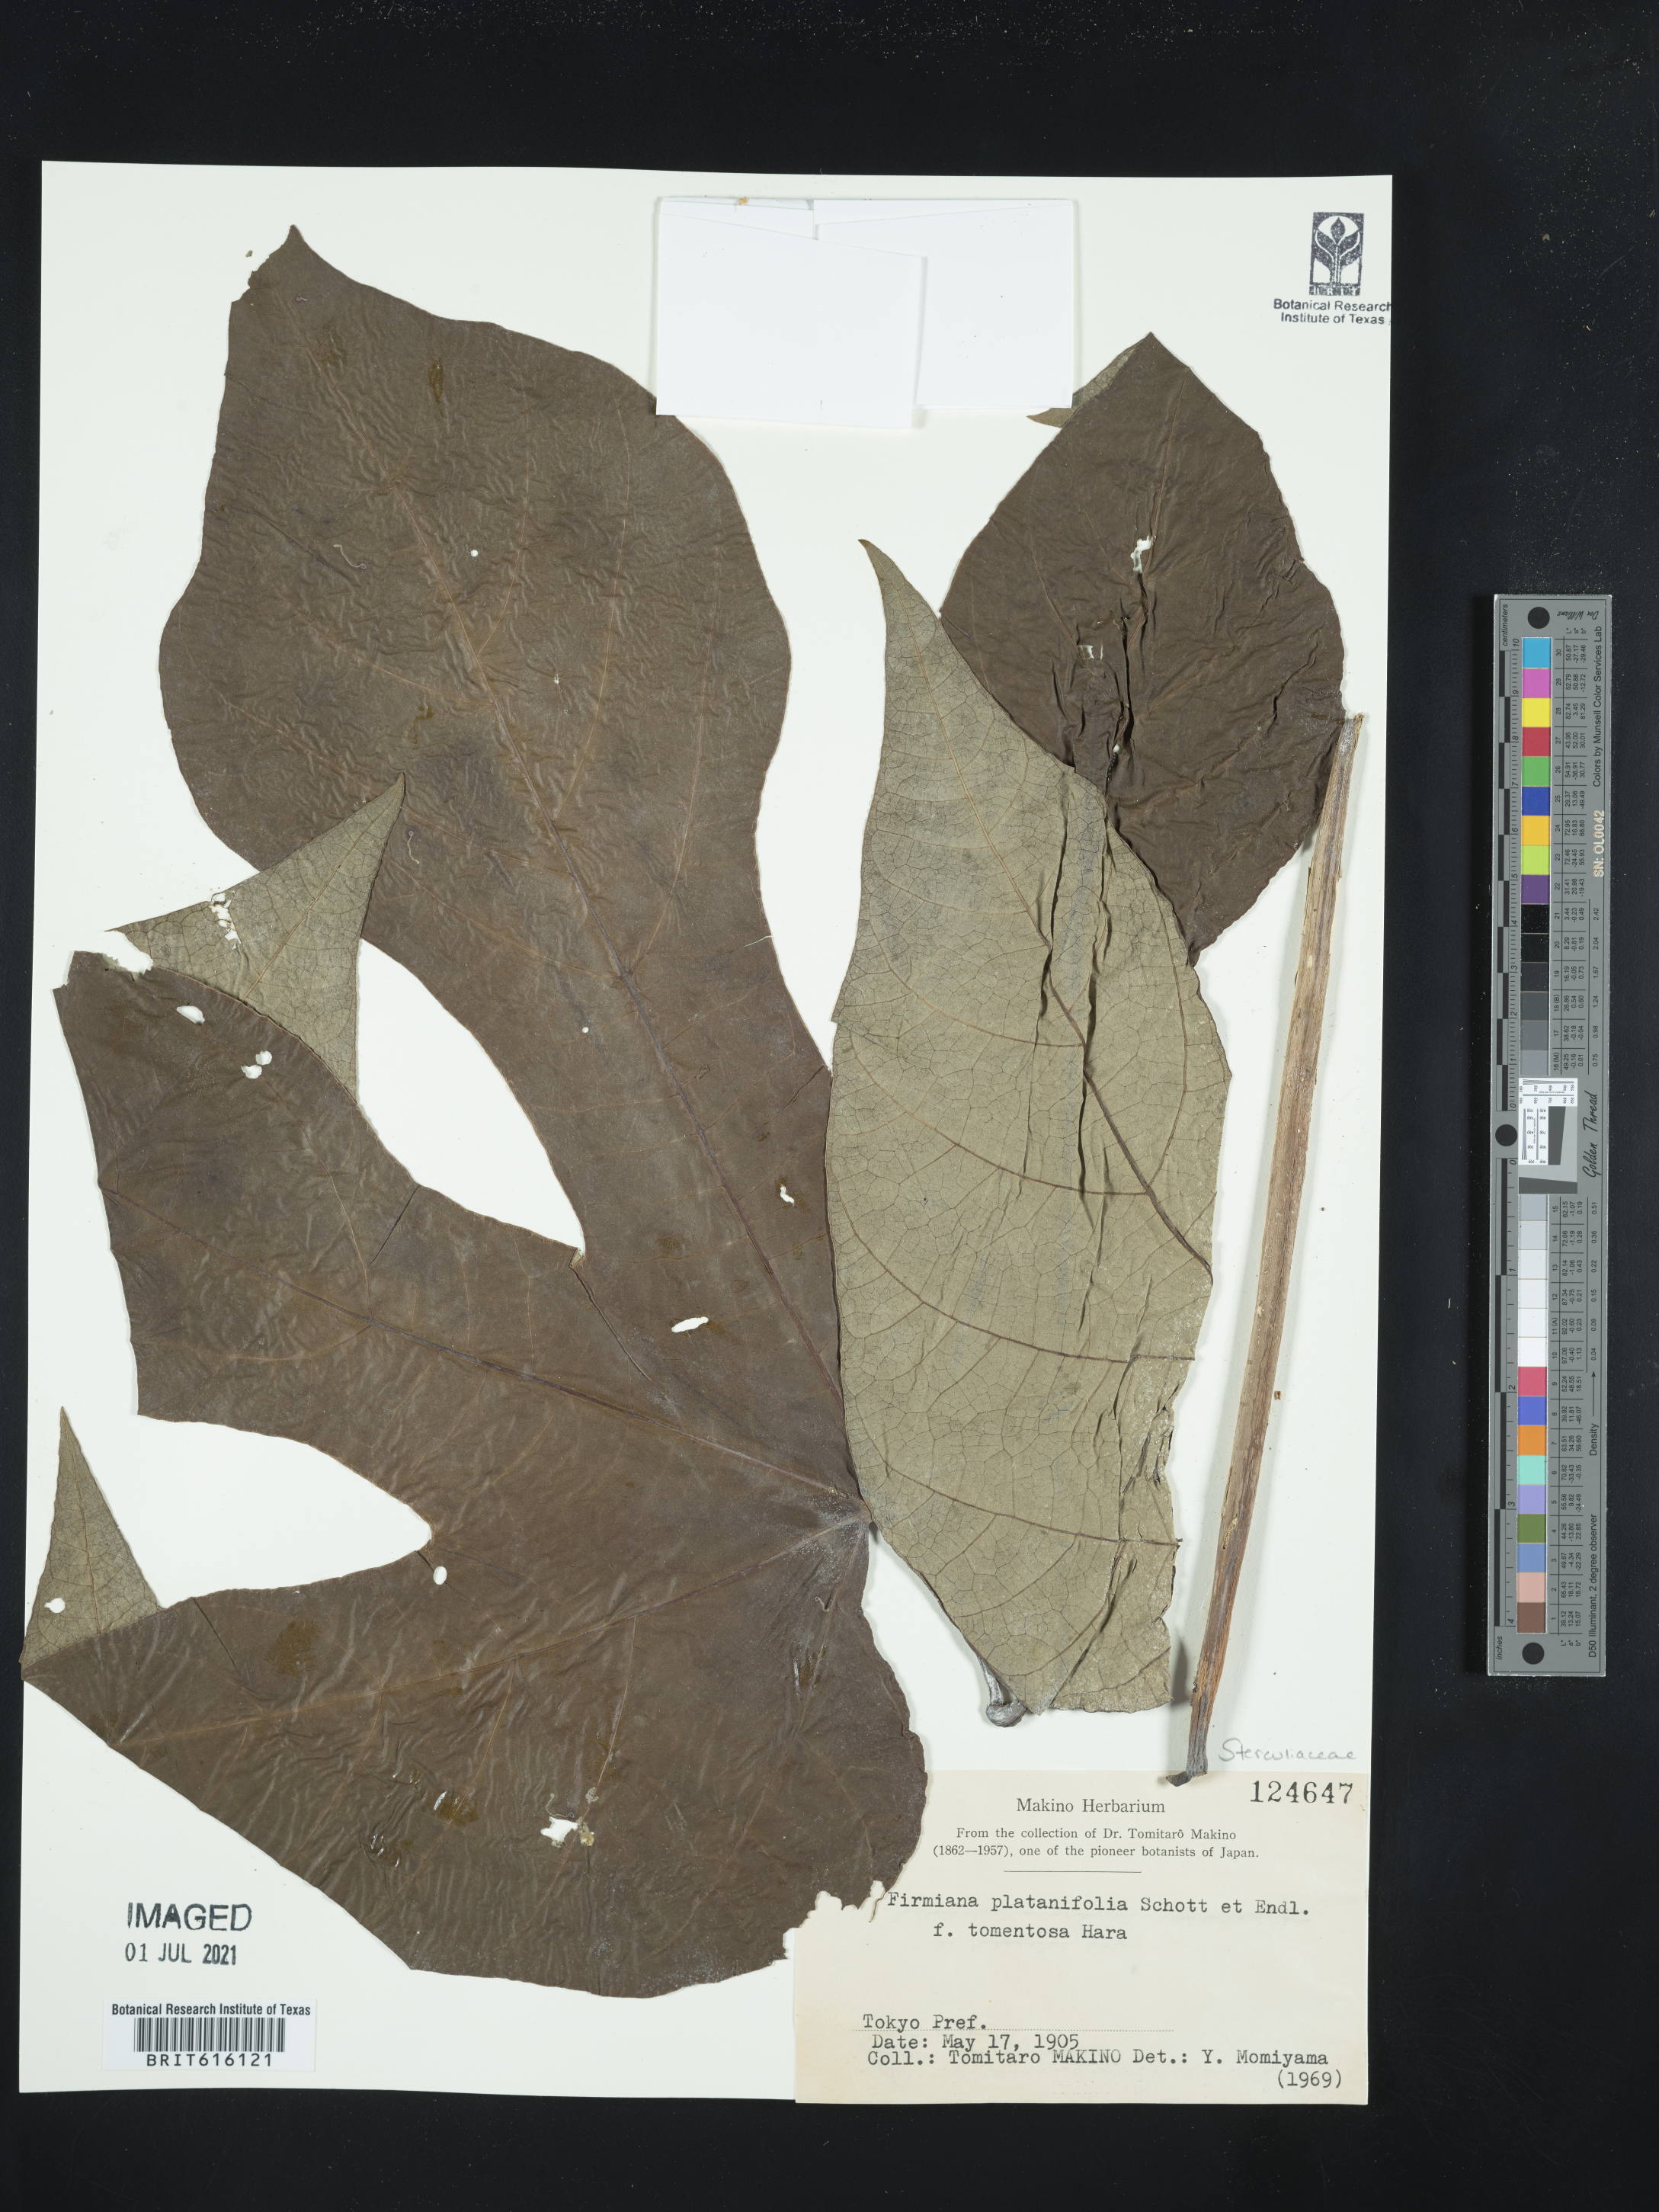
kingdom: Plantae
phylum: Tracheophyta
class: Magnoliopsida
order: Malvales
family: Malvaceae
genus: Firmiana
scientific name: Firmiana simplex
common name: Chinese parasoltree
